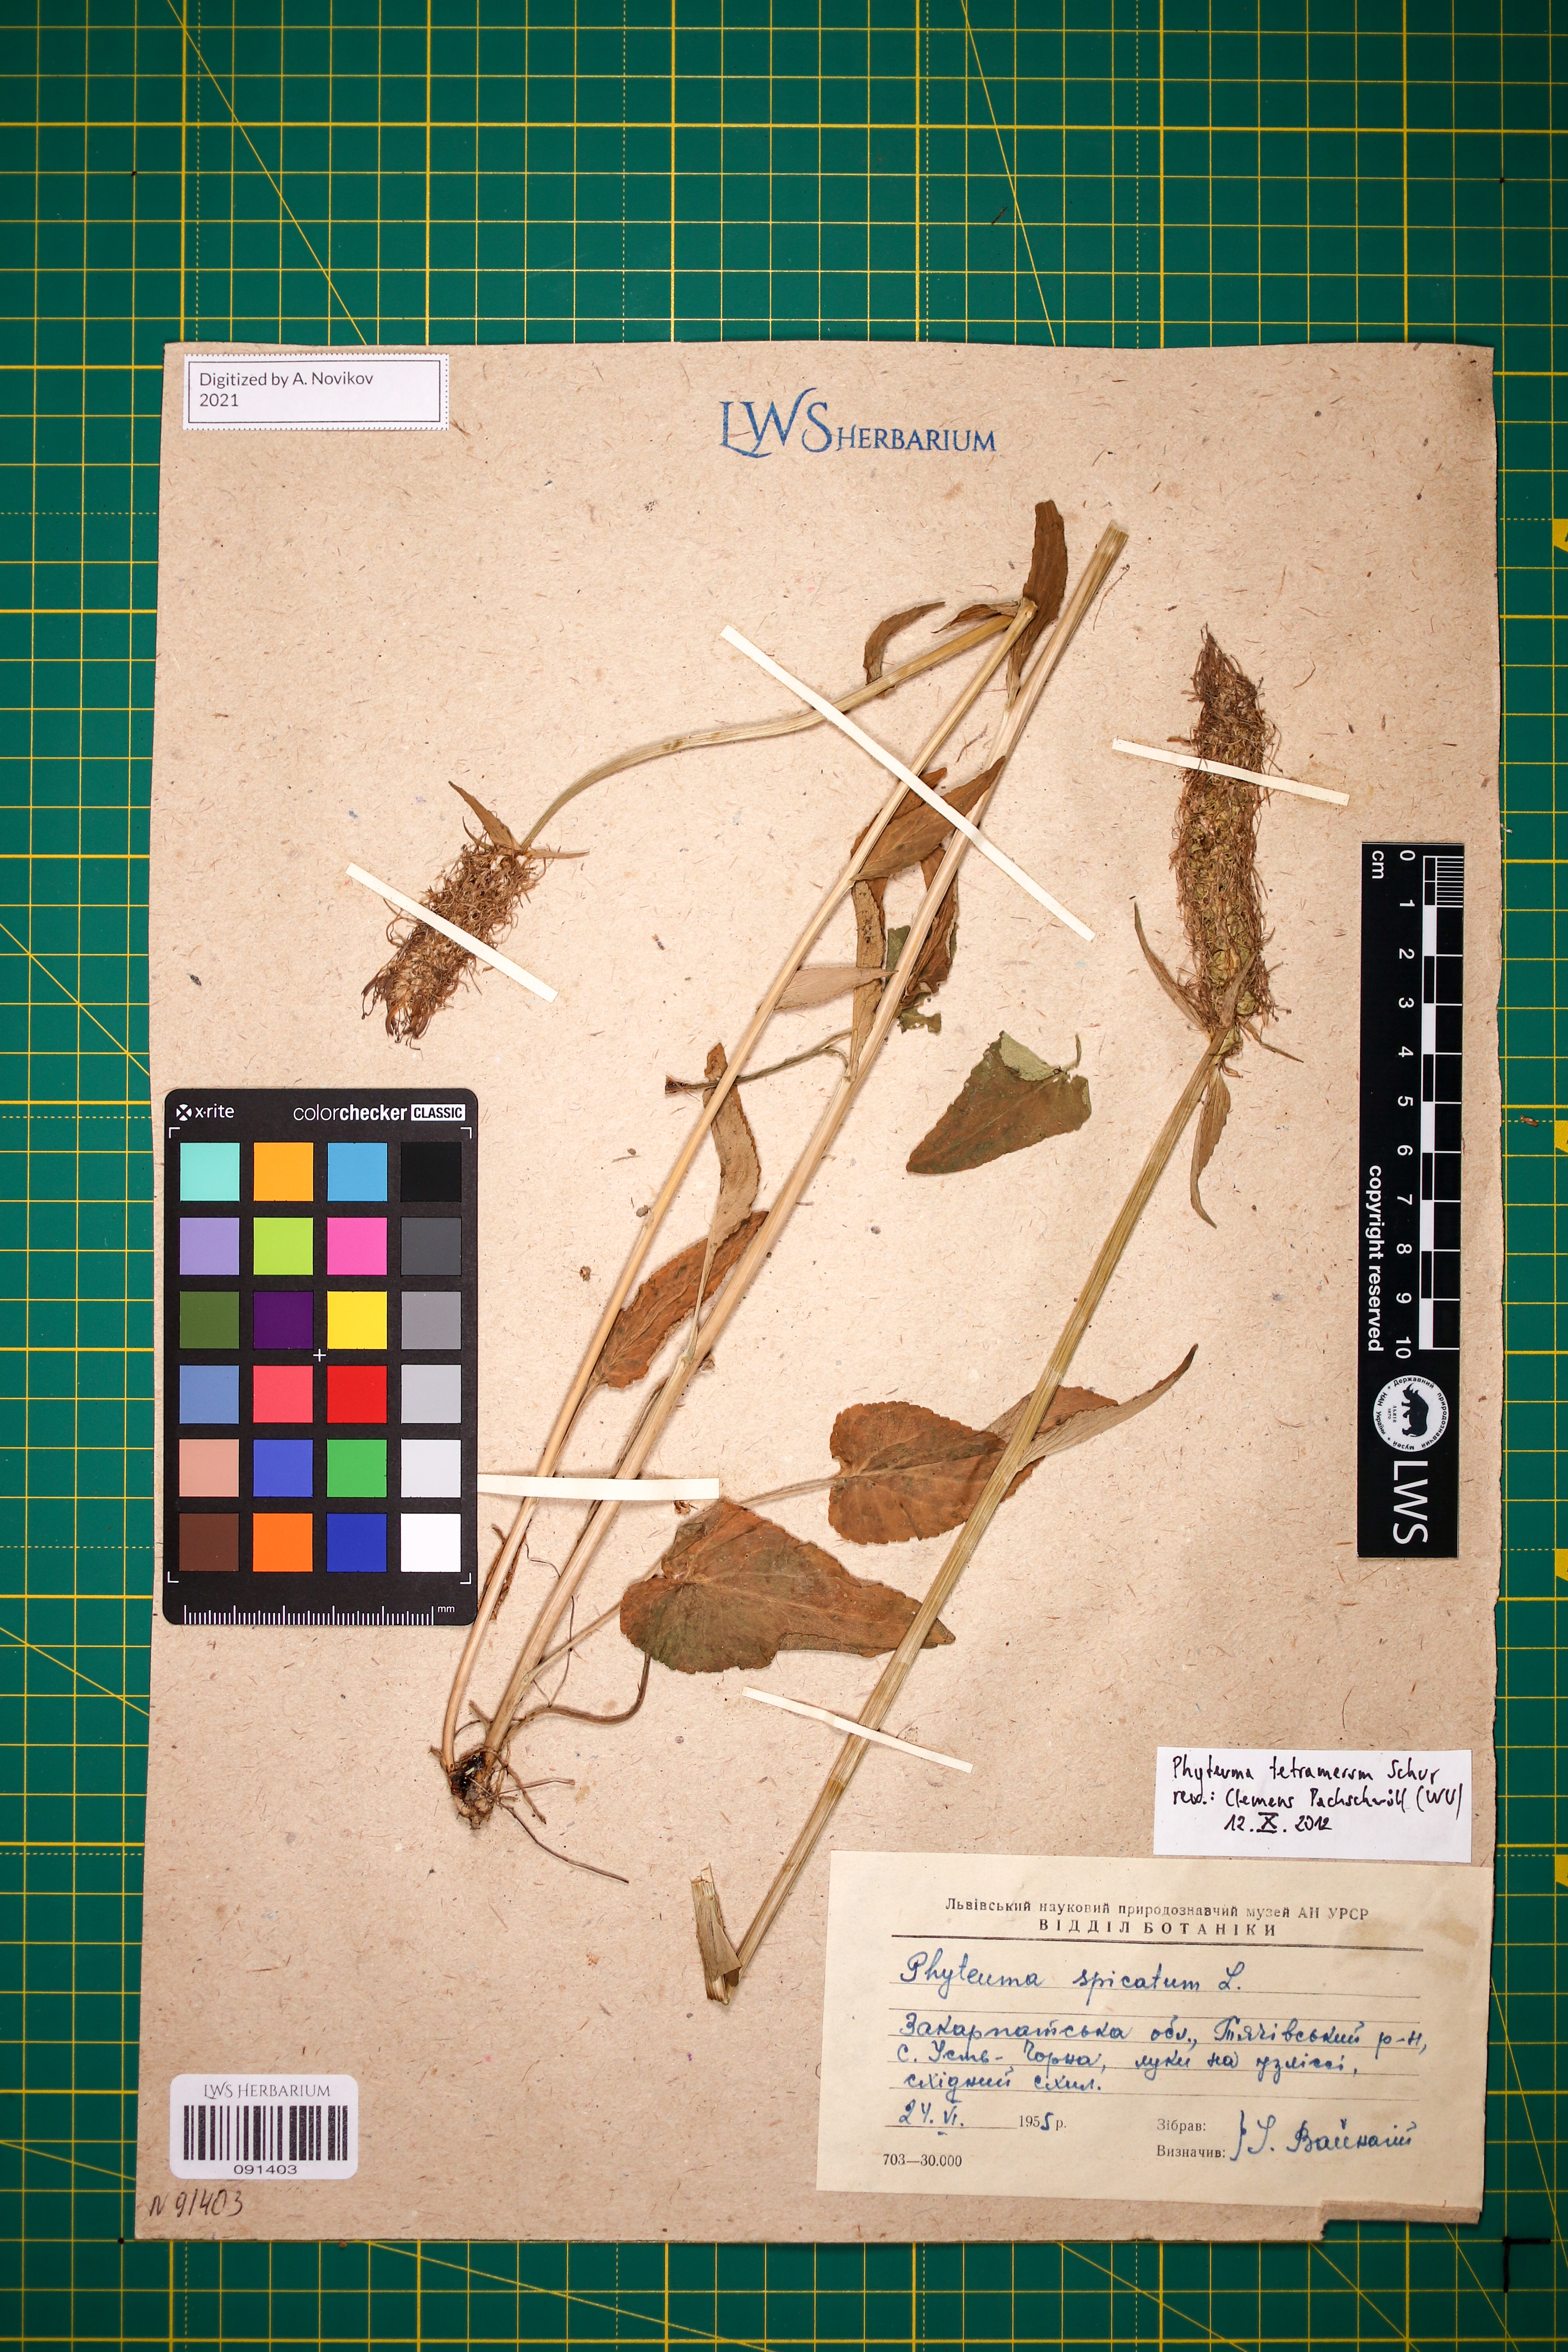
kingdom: Plantae
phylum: Tracheophyta
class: Magnoliopsida
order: Asterales
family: Campanulaceae
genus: Phyteuma
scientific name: Phyteuma tetramerum
